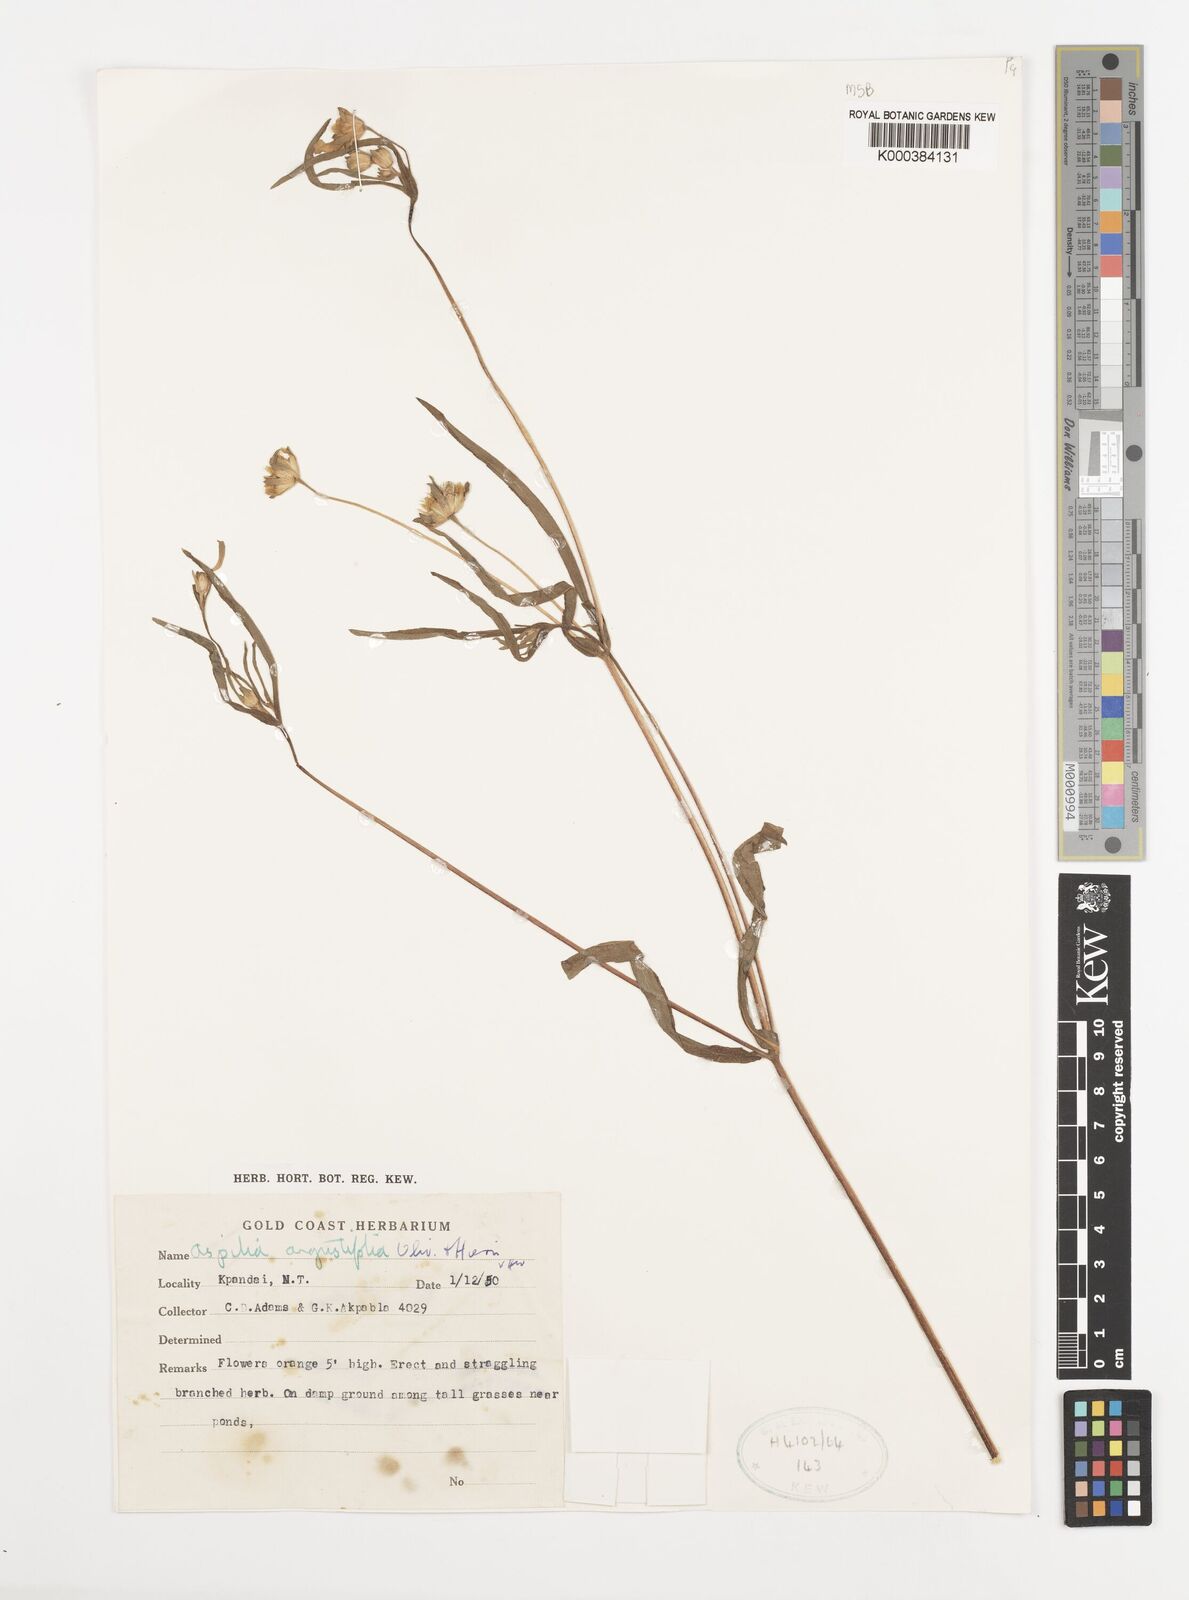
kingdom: Plantae
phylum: Tracheophyta
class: Magnoliopsida
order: Asterales
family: Asteraceae
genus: Aspilia
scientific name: Aspilia angustifolia
